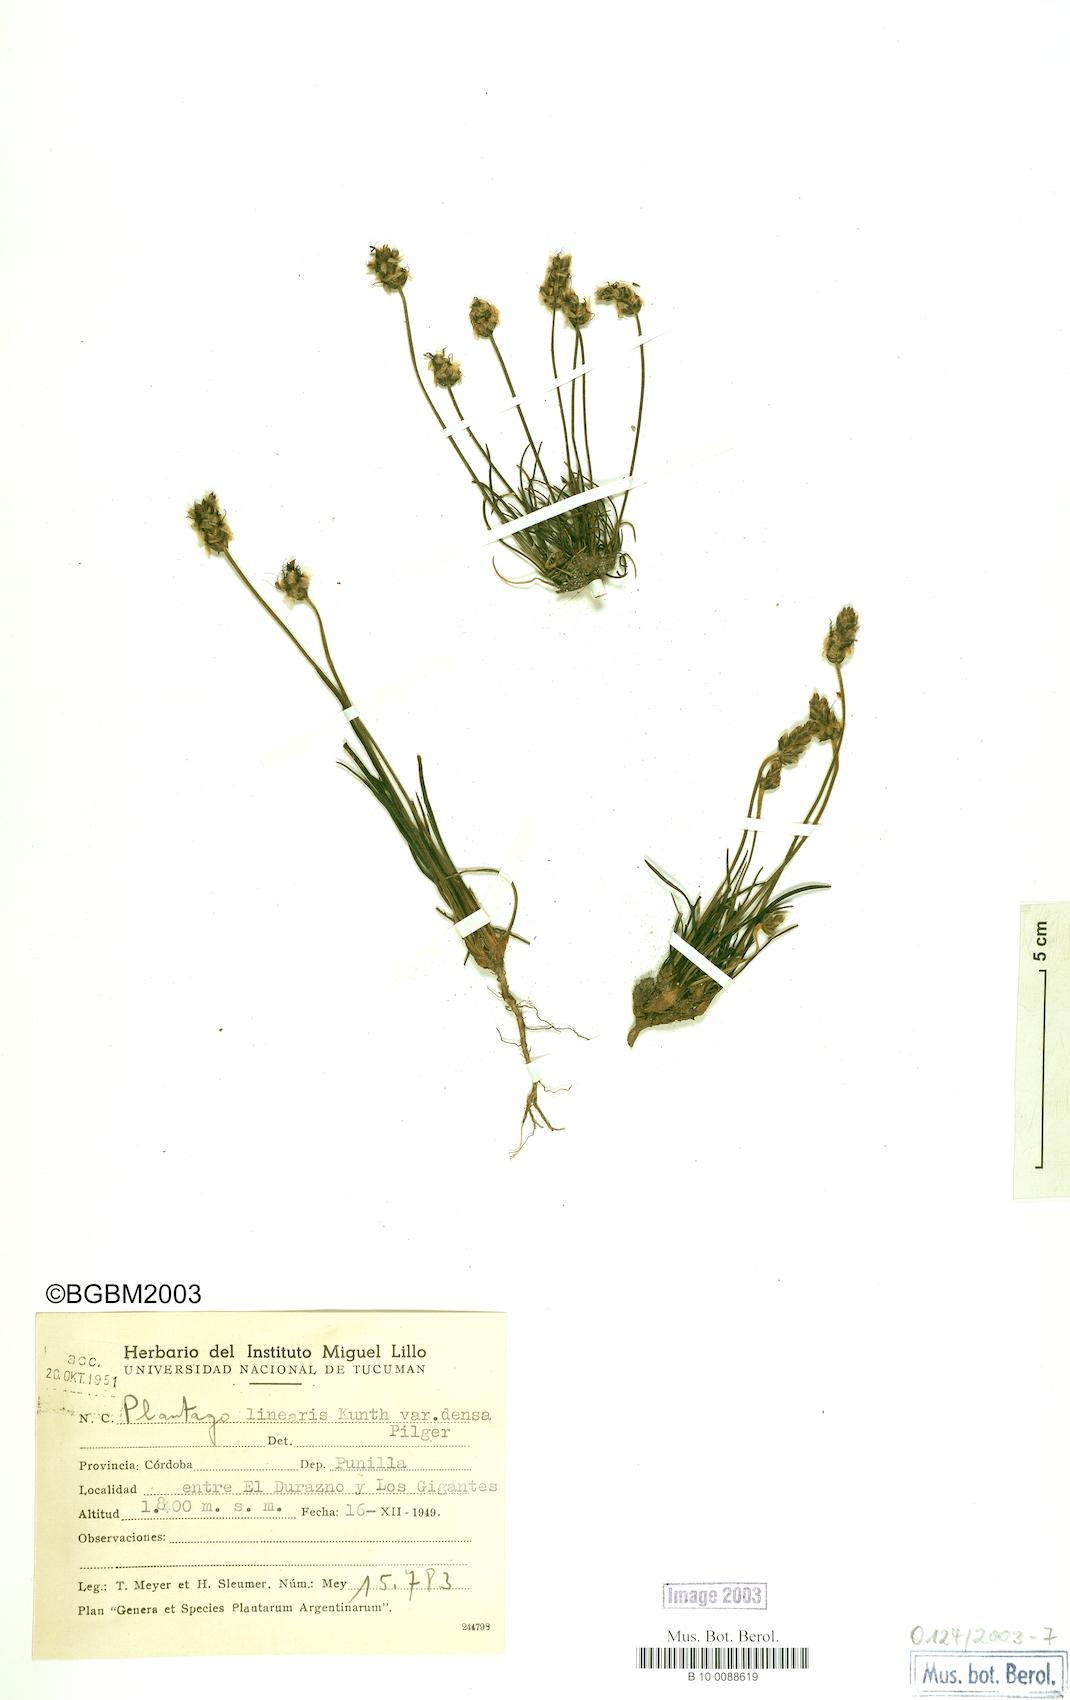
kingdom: Plantae
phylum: Tracheophyta
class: Magnoliopsida
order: Lamiales
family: Plantaginaceae
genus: Plantago
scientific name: Plantago densa
